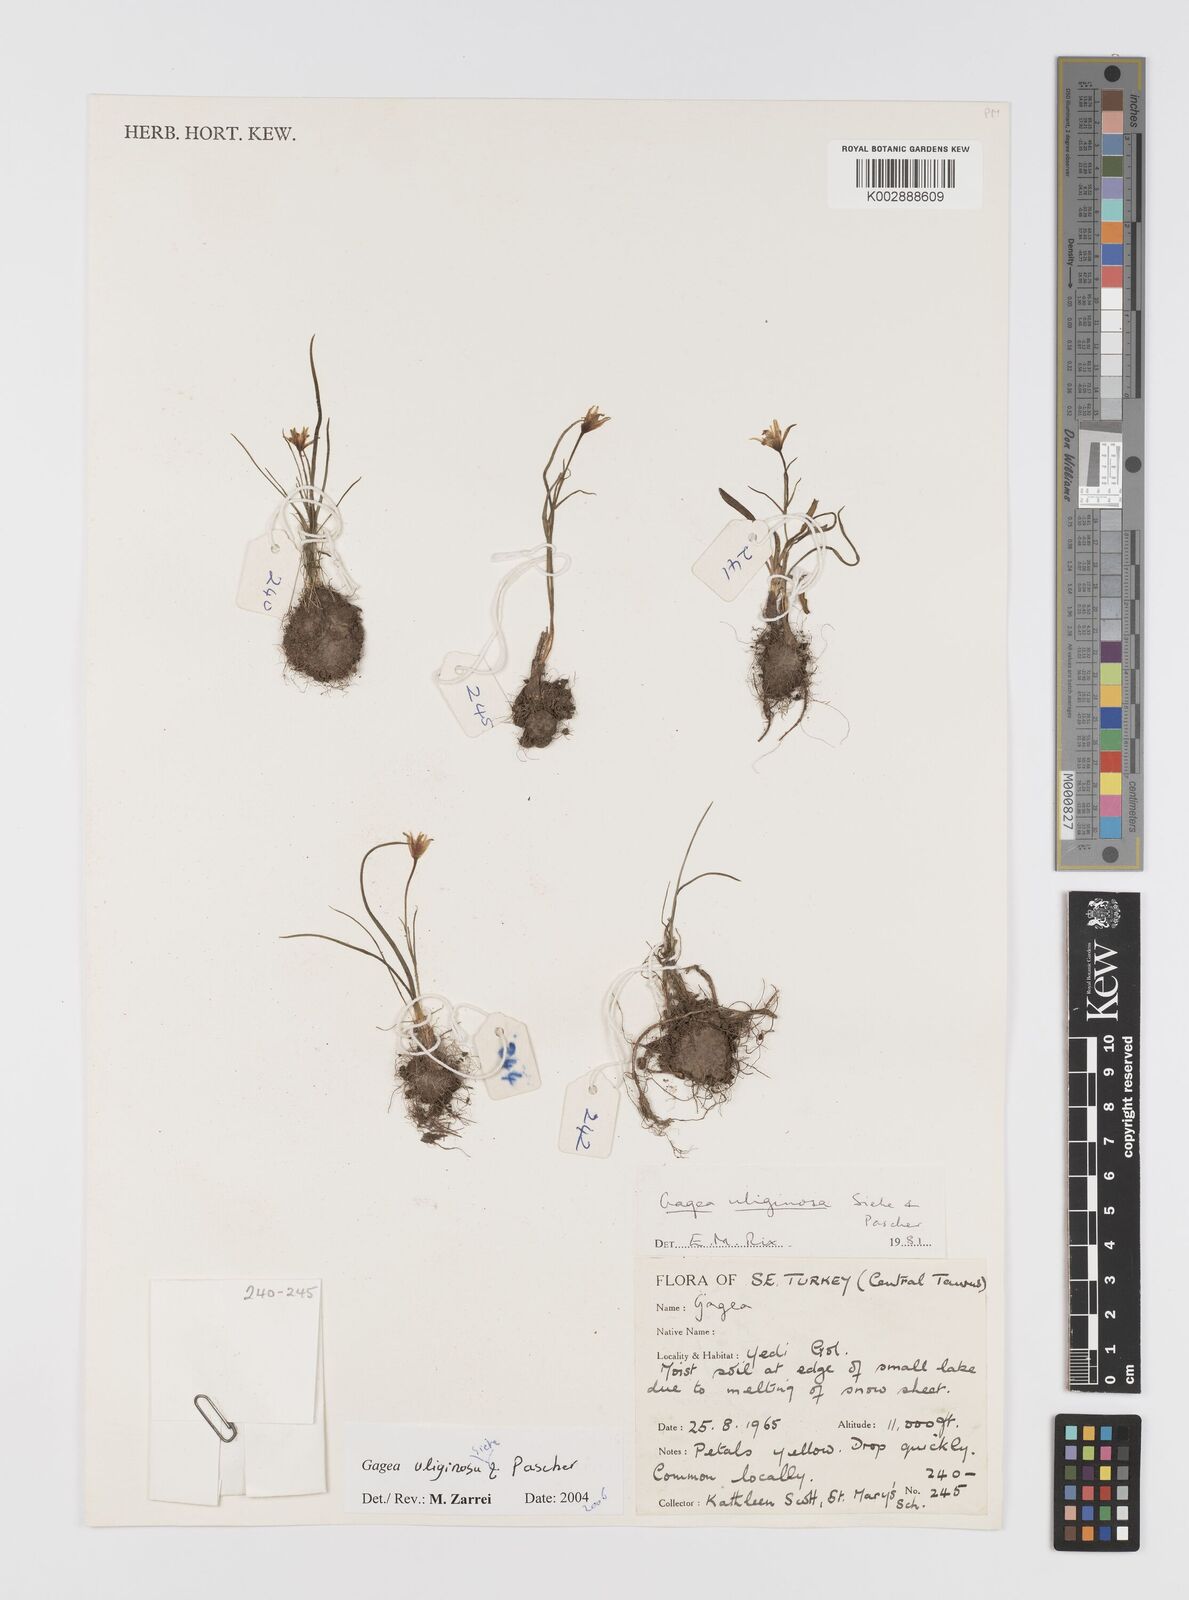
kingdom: Plantae
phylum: Tracheophyta
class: Liliopsida
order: Liliales
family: Liliaceae
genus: Gagea
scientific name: Gagea uliginosa
